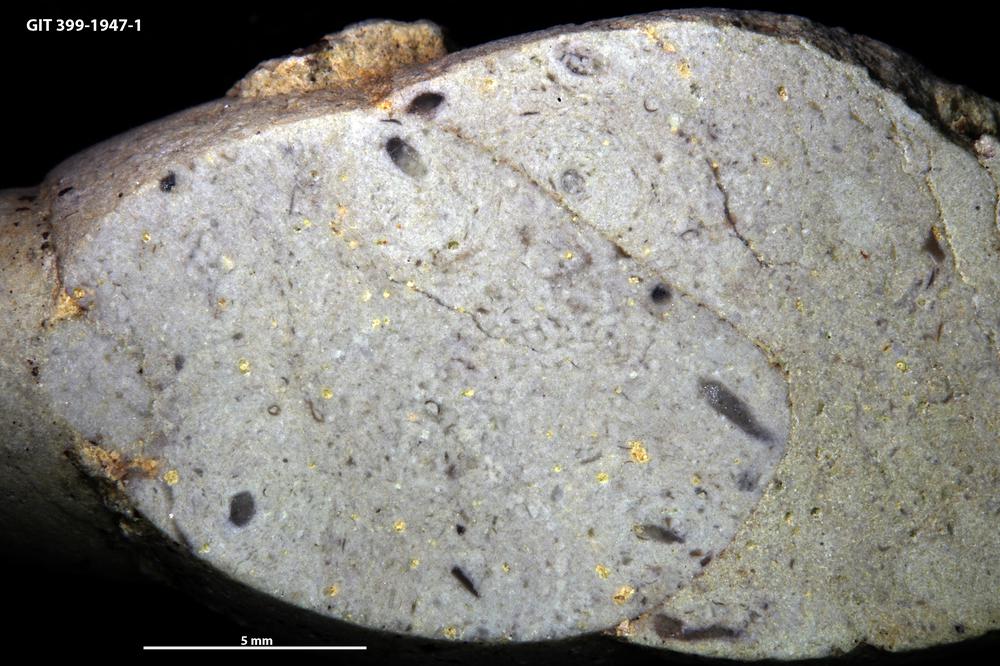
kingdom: Animalia
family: Coprulidae
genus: Coprulus
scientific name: Coprulus
